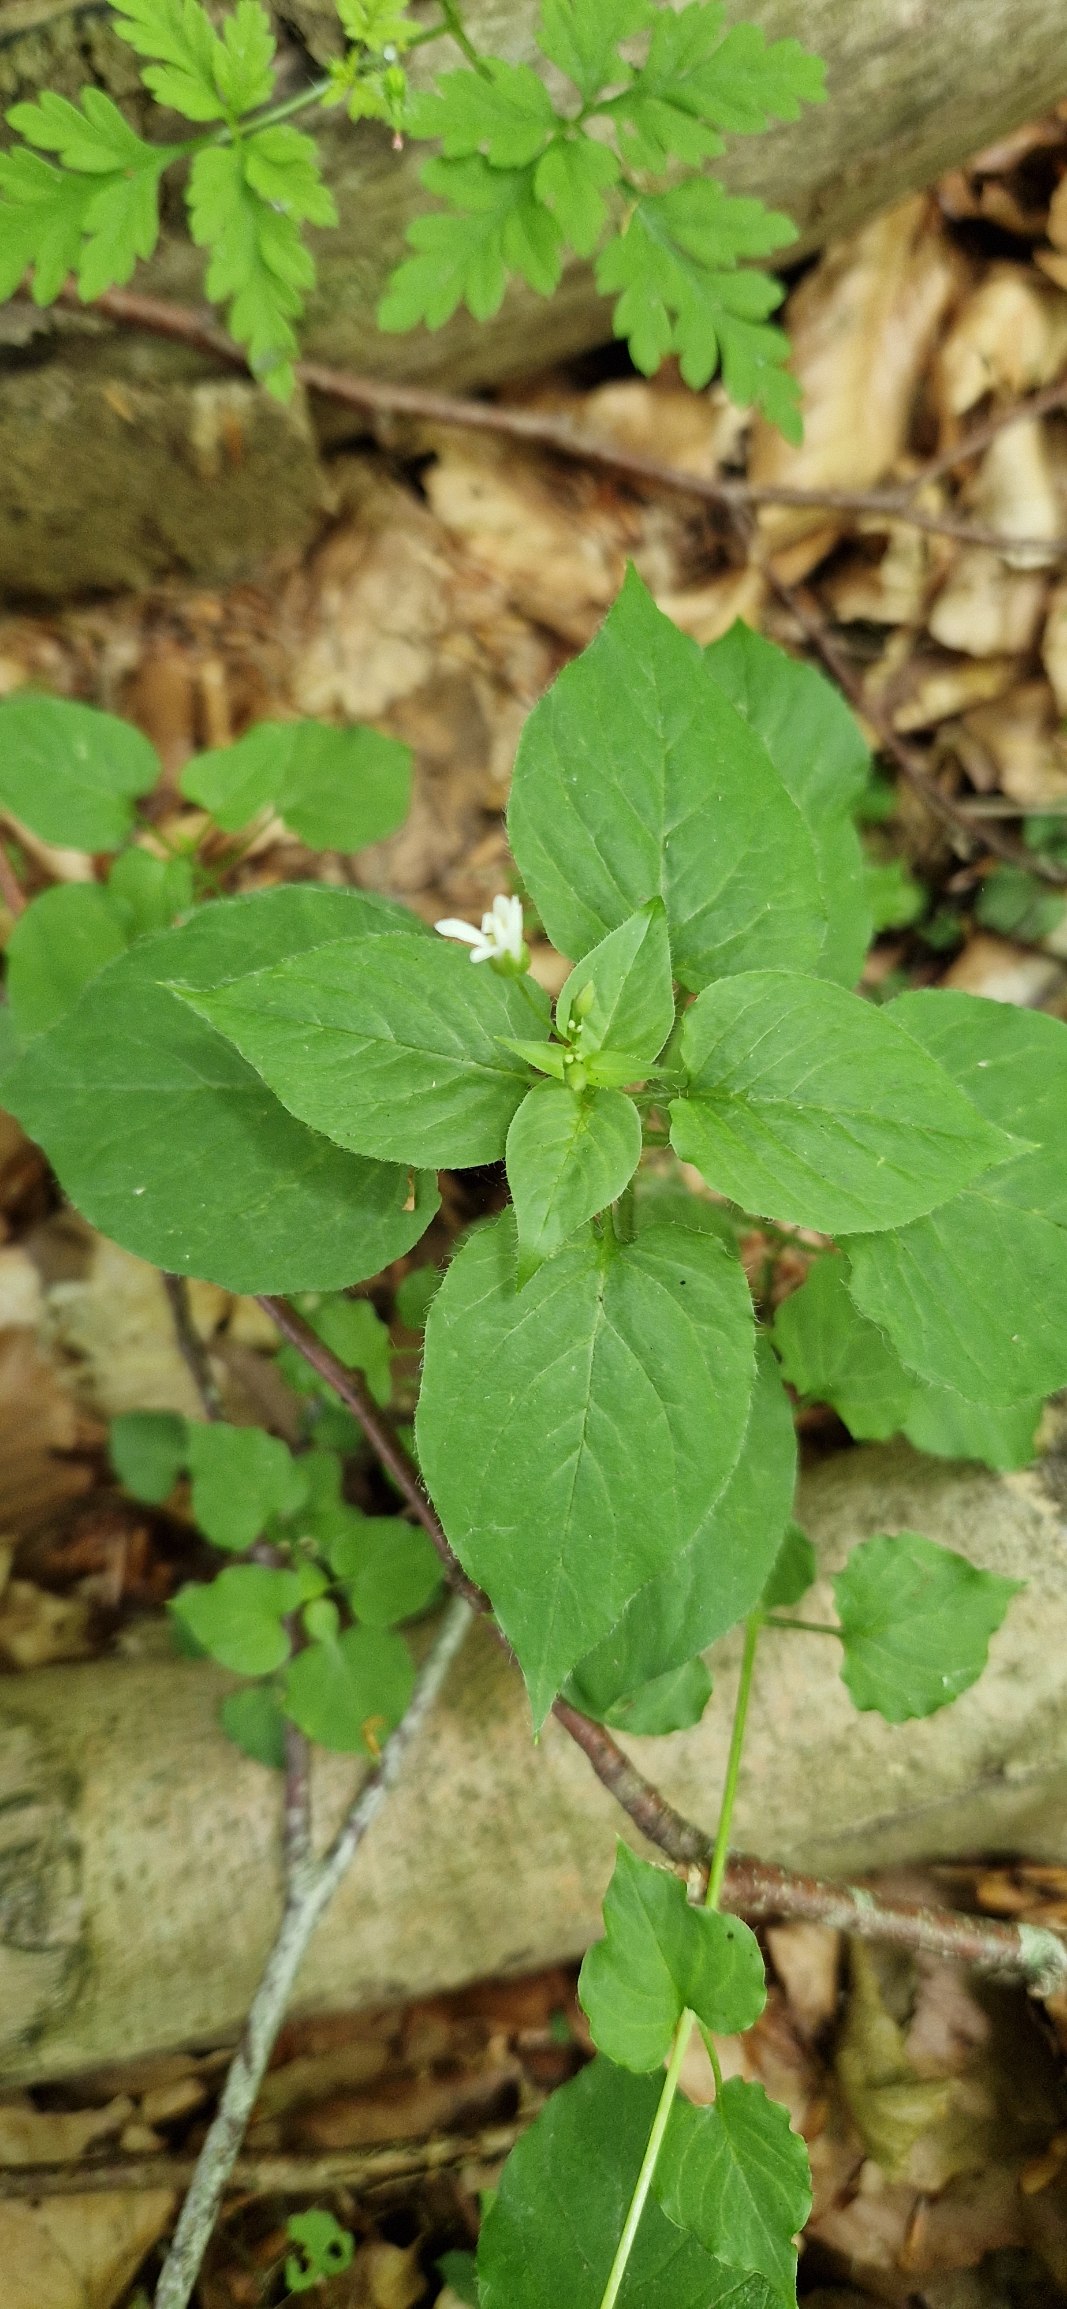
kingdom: Plantae
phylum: Tracheophyta
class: Magnoliopsida
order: Caryophyllales
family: Caryophyllaceae
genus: Stellaria
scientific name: Stellaria glochidisperma
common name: Sydlig lund-fladstjerne
